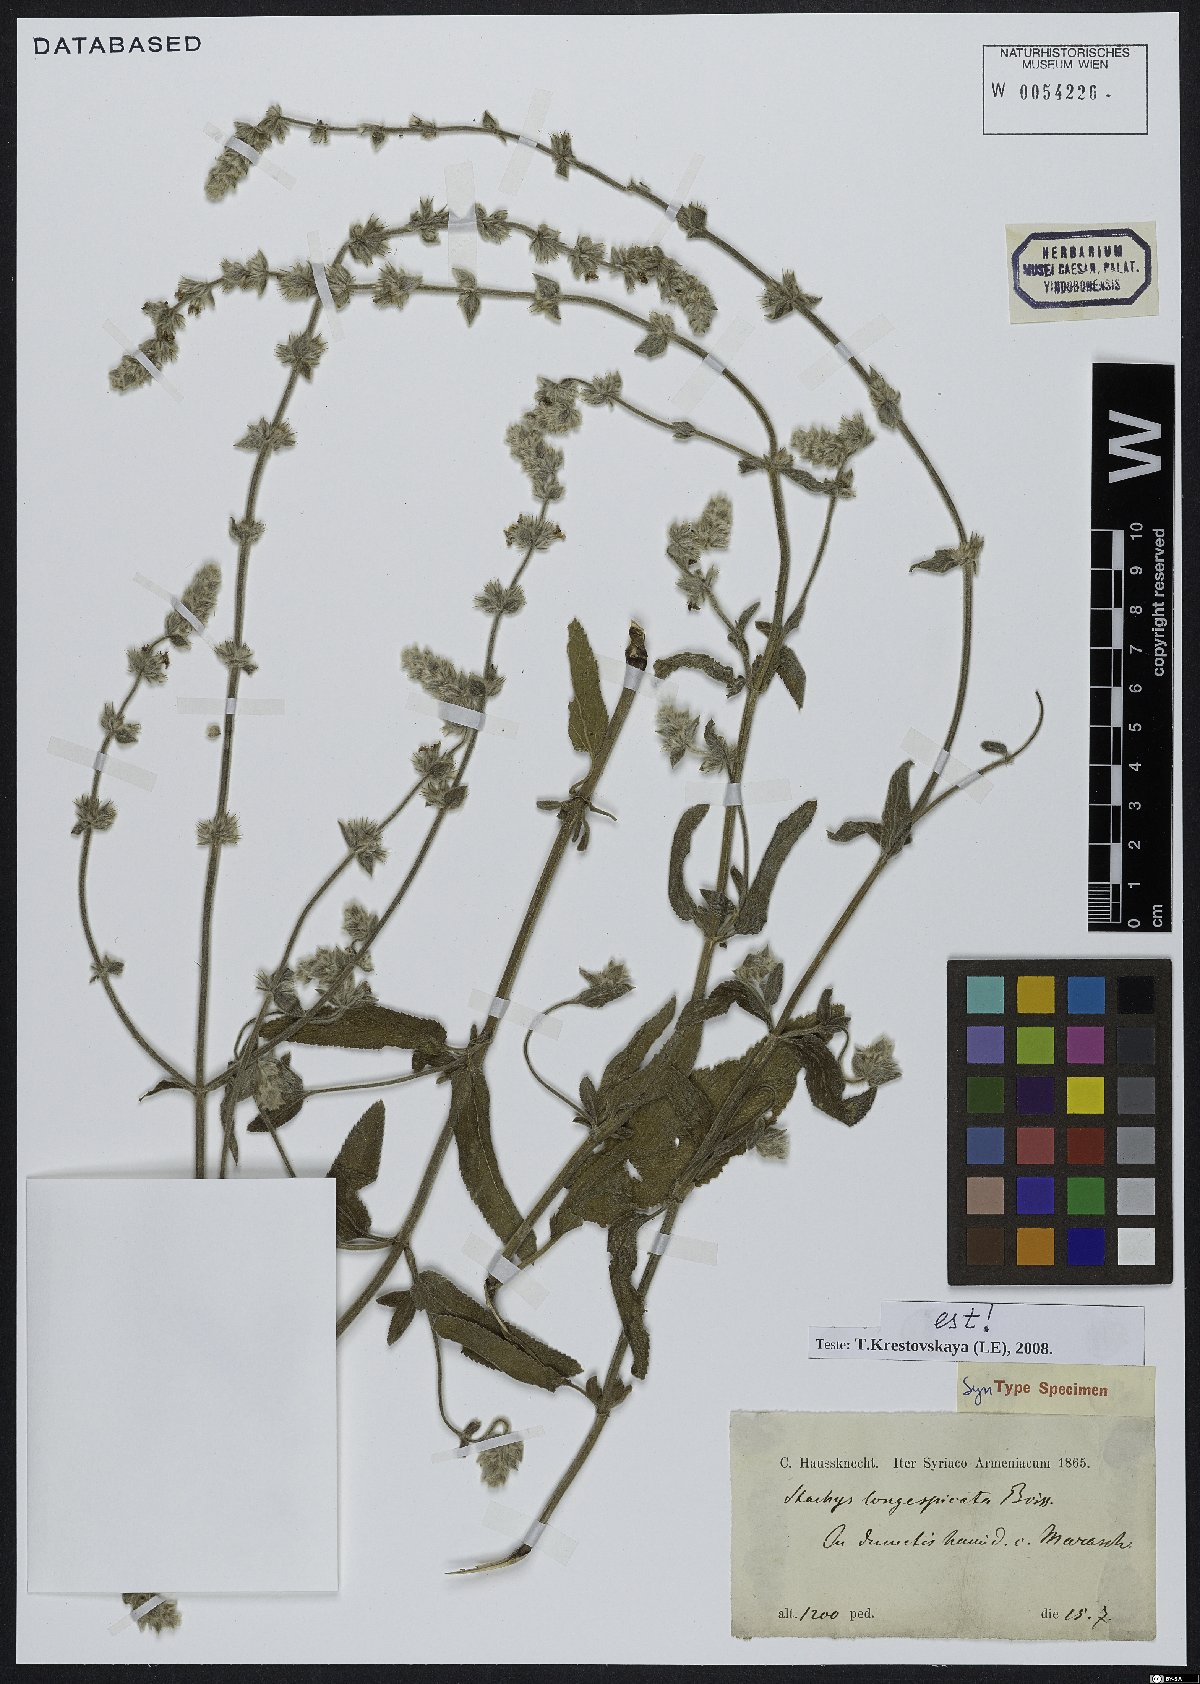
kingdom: Plantae
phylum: Tracheophyta
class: Magnoliopsida
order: Lamiales
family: Lamiaceae
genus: Stachys
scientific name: Stachys longispicata
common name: Longspike hedgenettle
